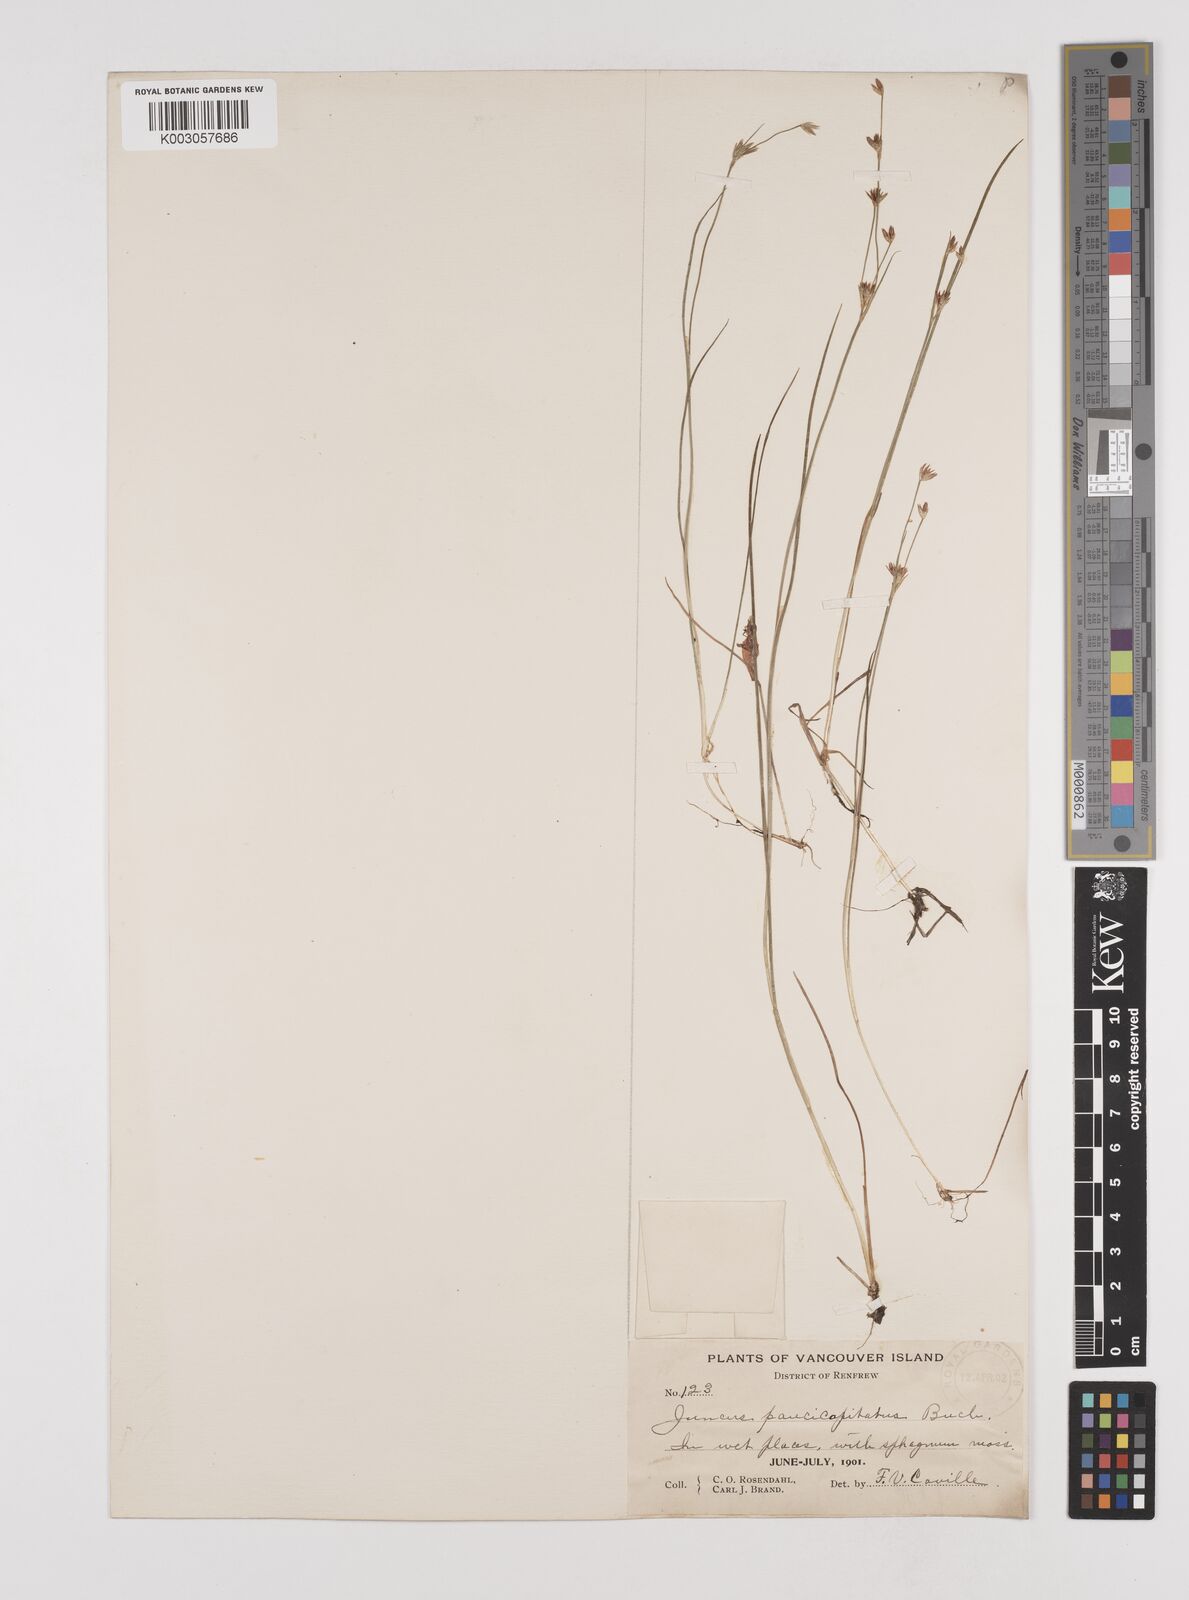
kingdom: Plantae
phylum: Tracheophyta
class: Liliopsida
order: Poales
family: Juncaceae
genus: Juncus
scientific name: Juncus supiniformis
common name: Hairy-leaved rush
